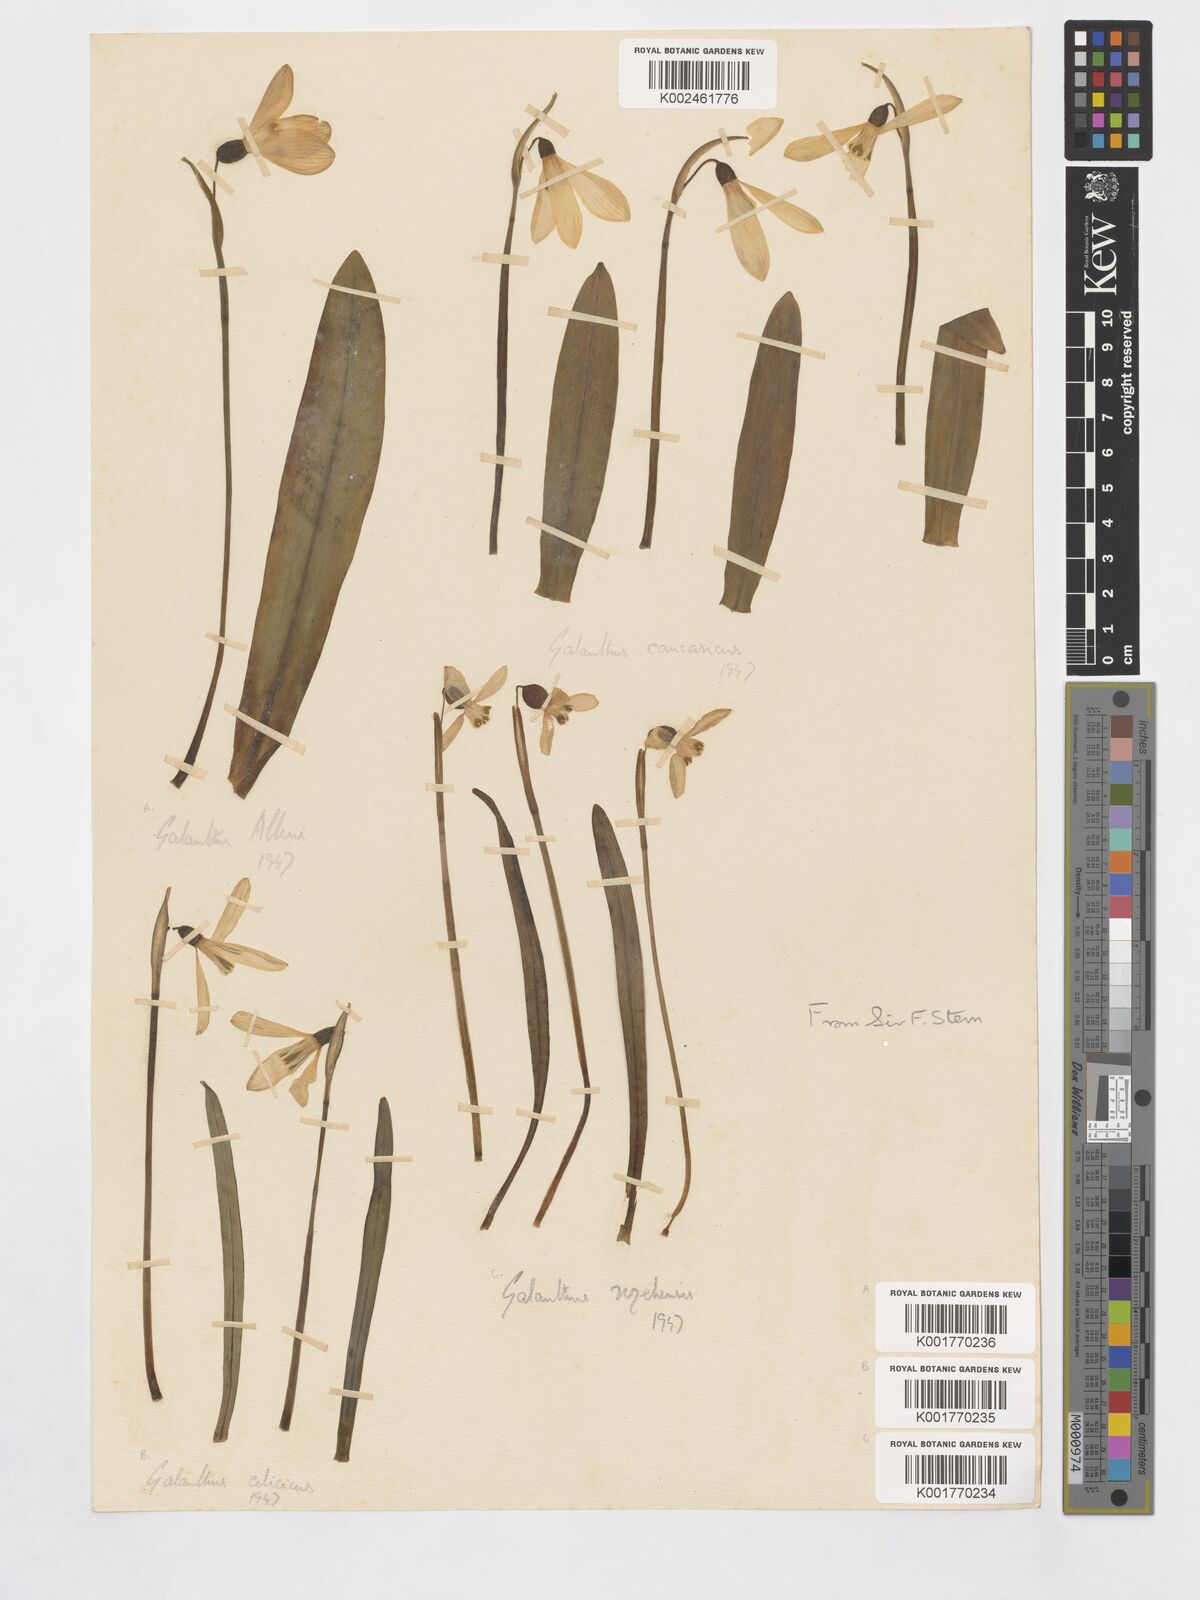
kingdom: Plantae
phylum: Tracheophyta
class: Liliopsida
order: Asparagales
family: Amaryllidaceae
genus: Galanthus
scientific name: Galanthus alpinus
